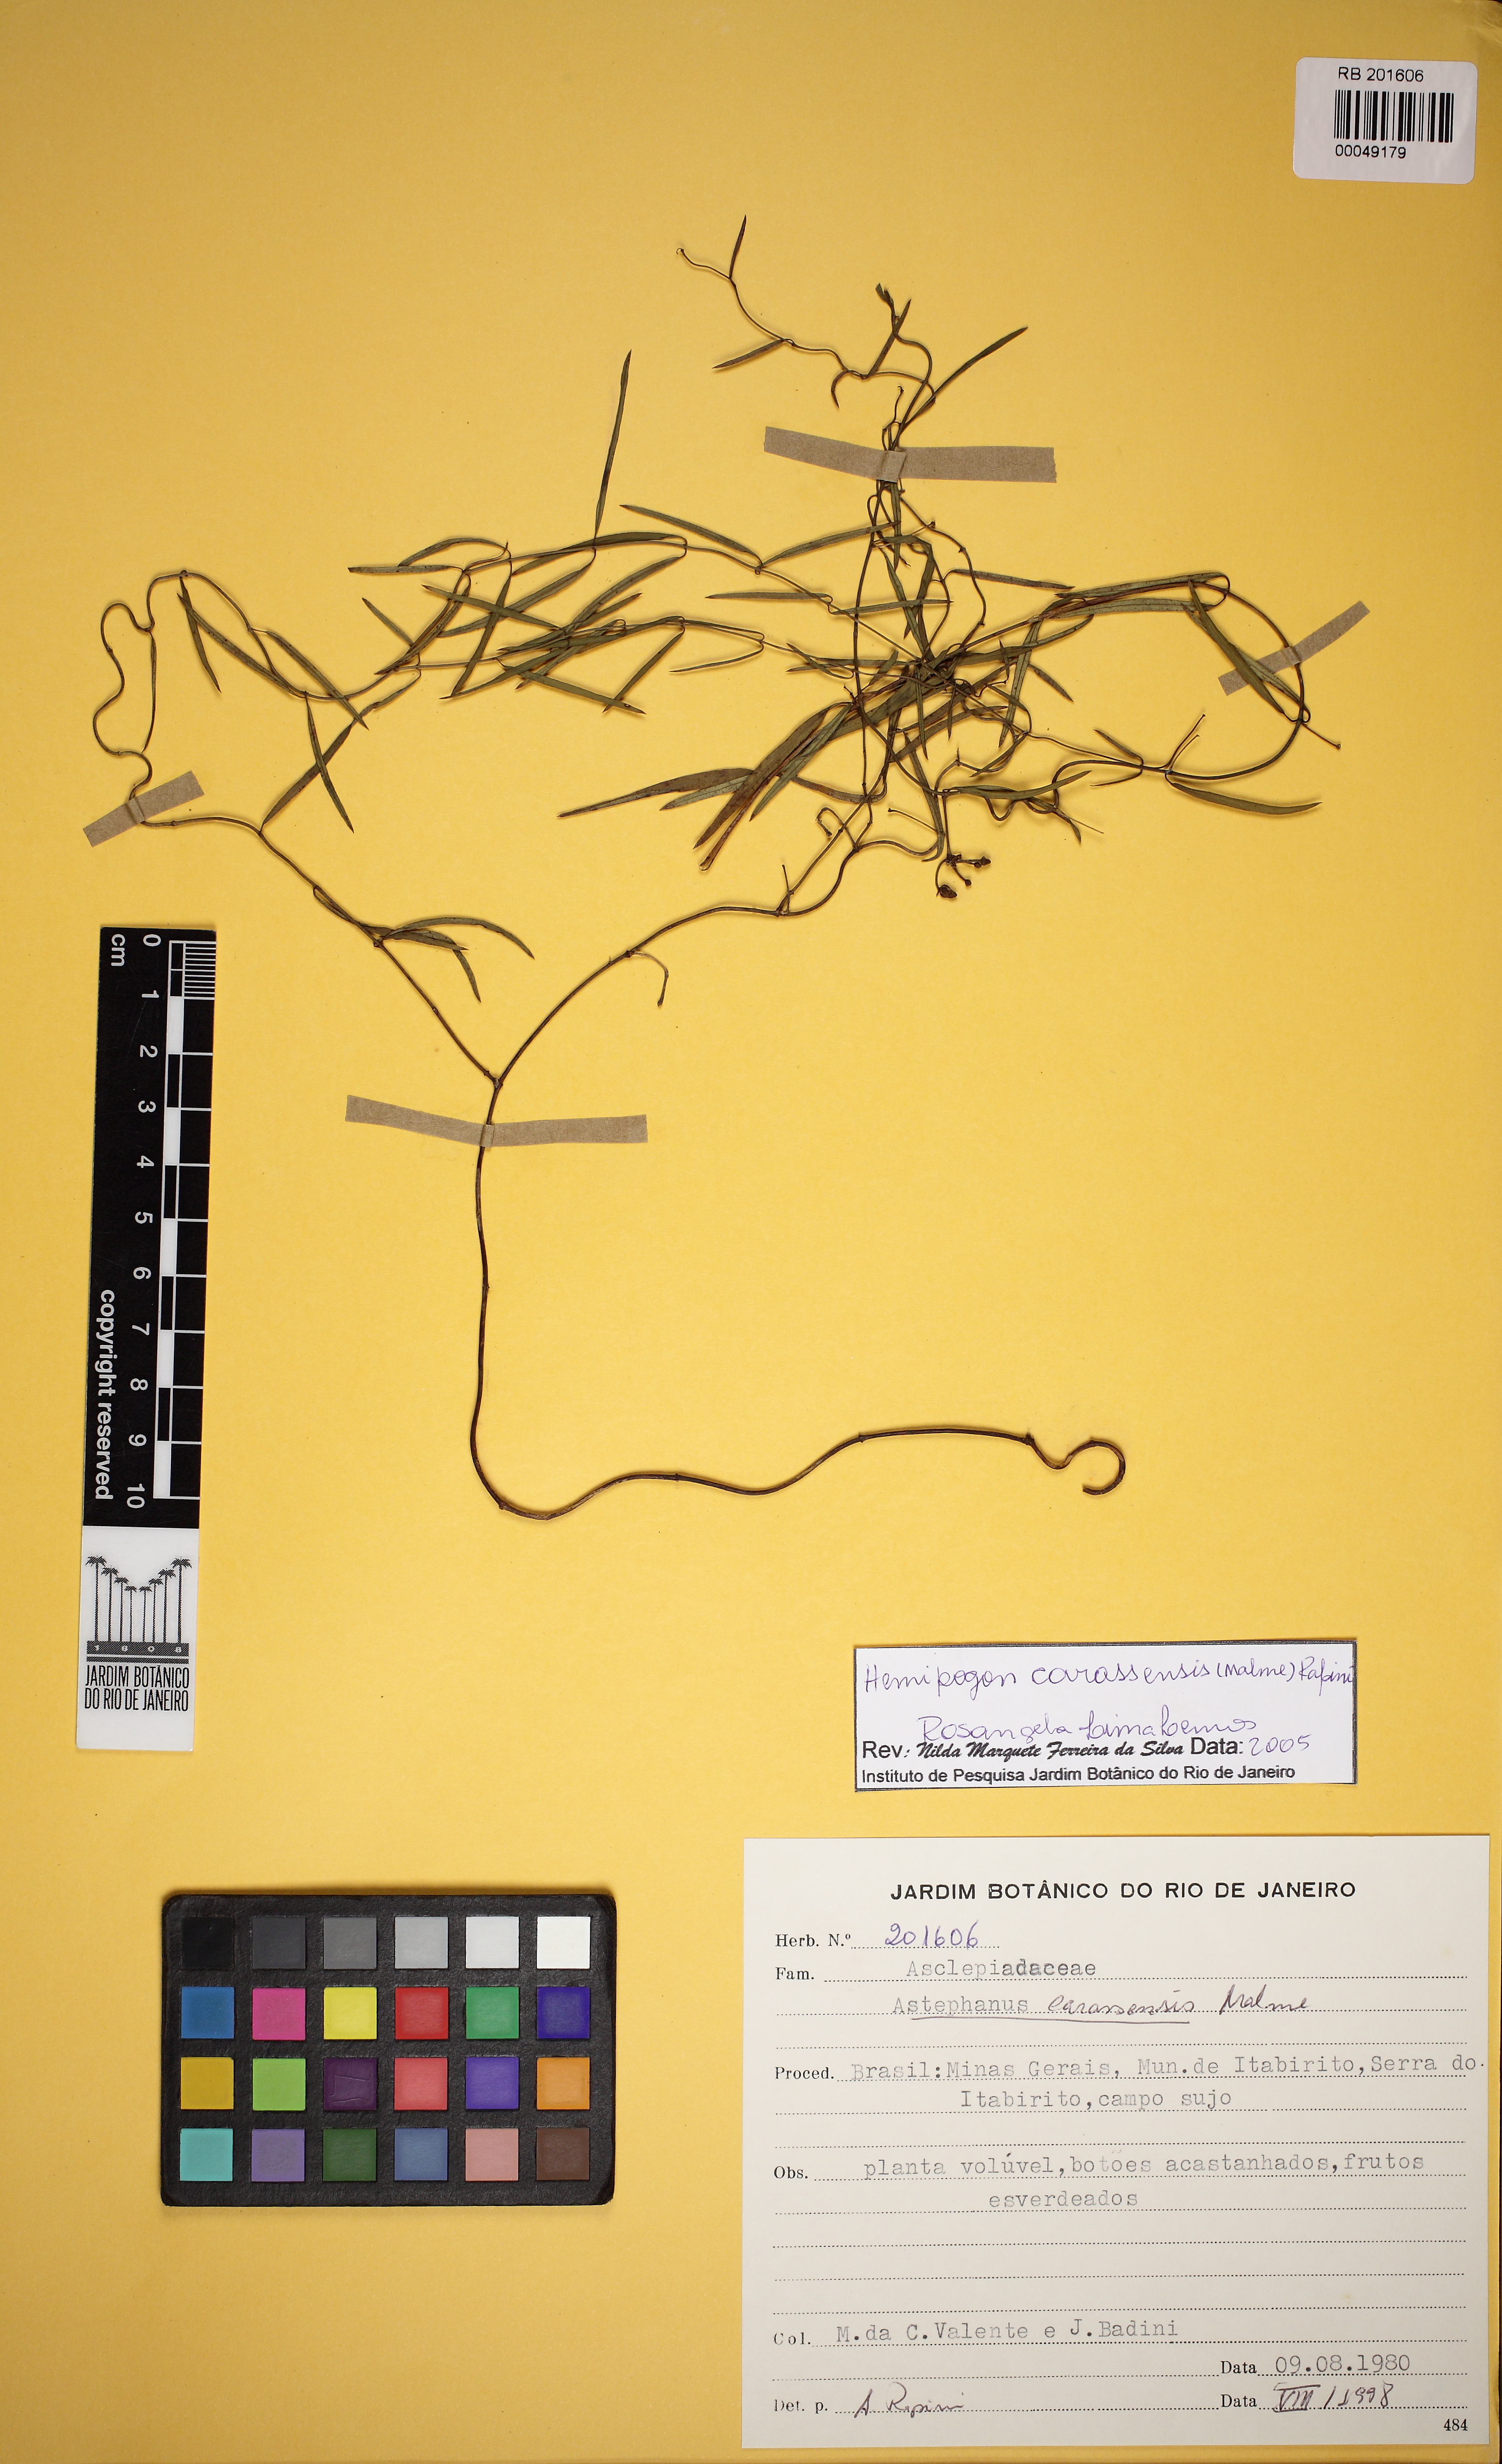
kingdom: Plantae
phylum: Tracheophyta
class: Magnoliopsida
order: Gentianales
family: Apocynaceae
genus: Morilloa
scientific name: Morilloa carassensis
